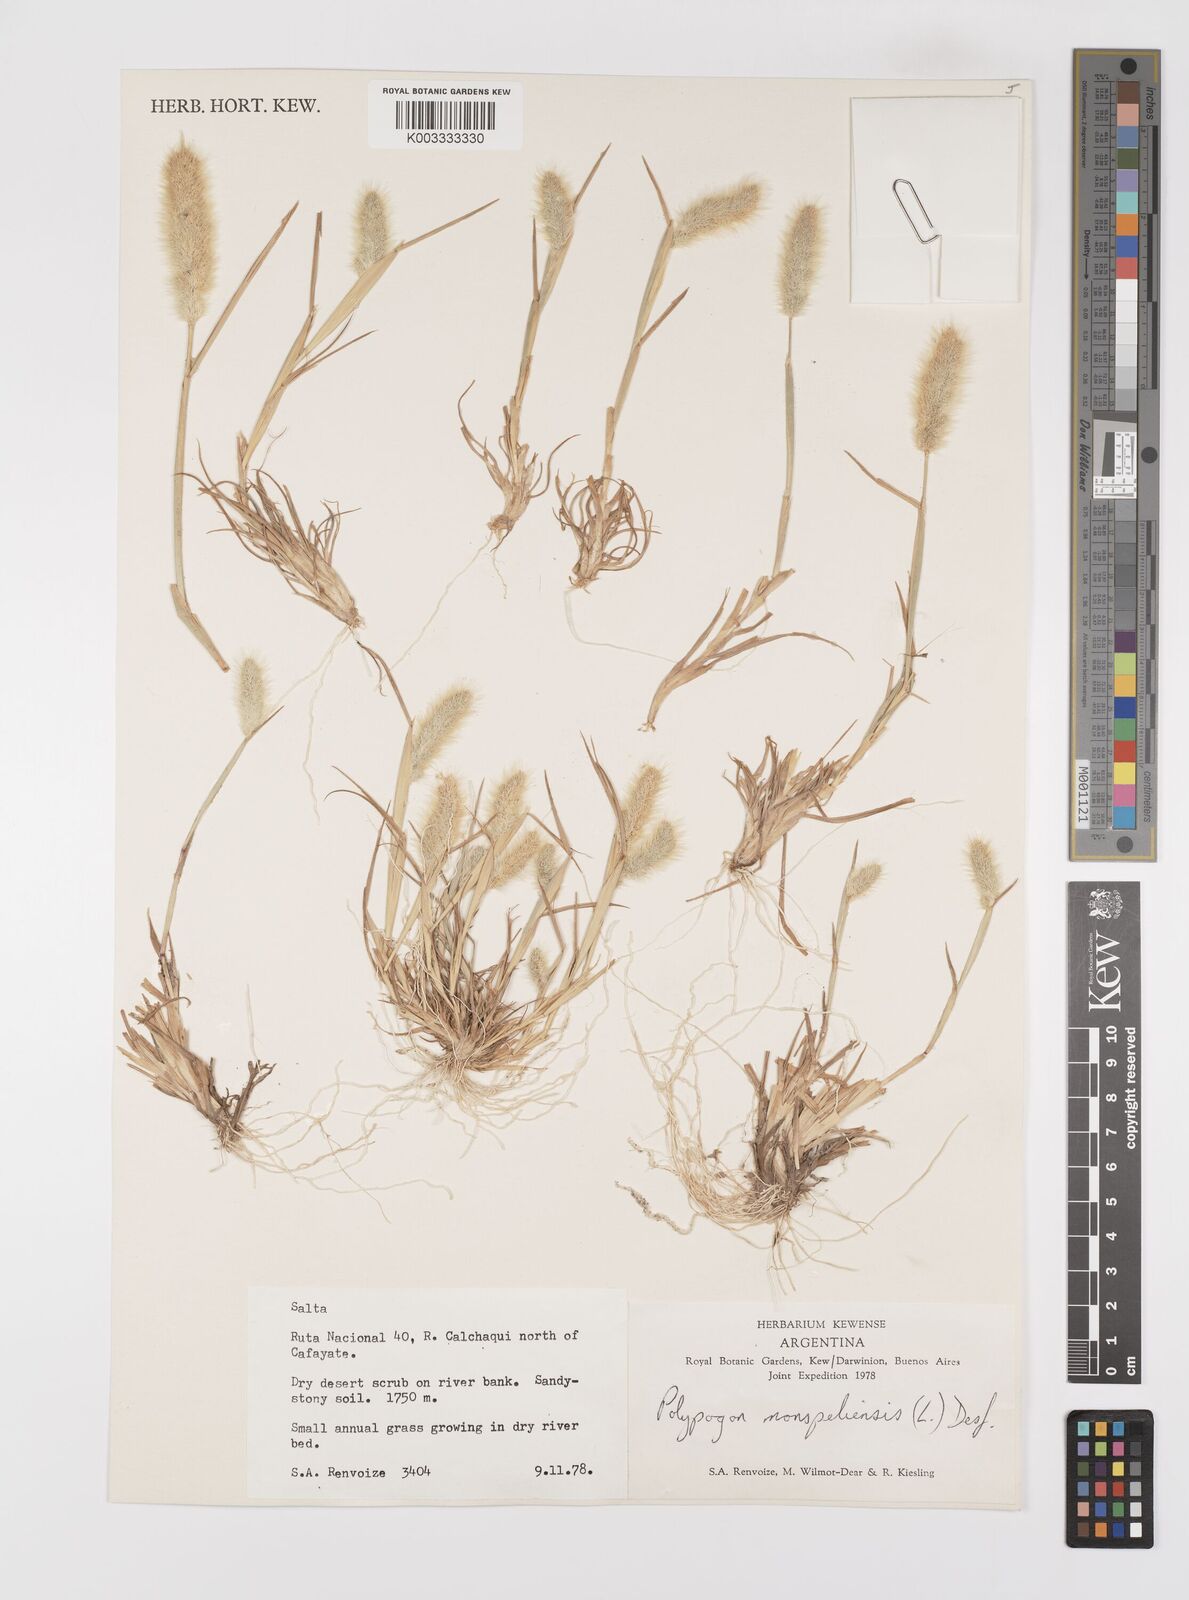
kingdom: Plantae
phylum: Tracheophyta
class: Liliopsida
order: Poales
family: Poaceae
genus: Polypogon
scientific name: Polypogon monspeliensis
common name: Annual rabbitsfoot grass
